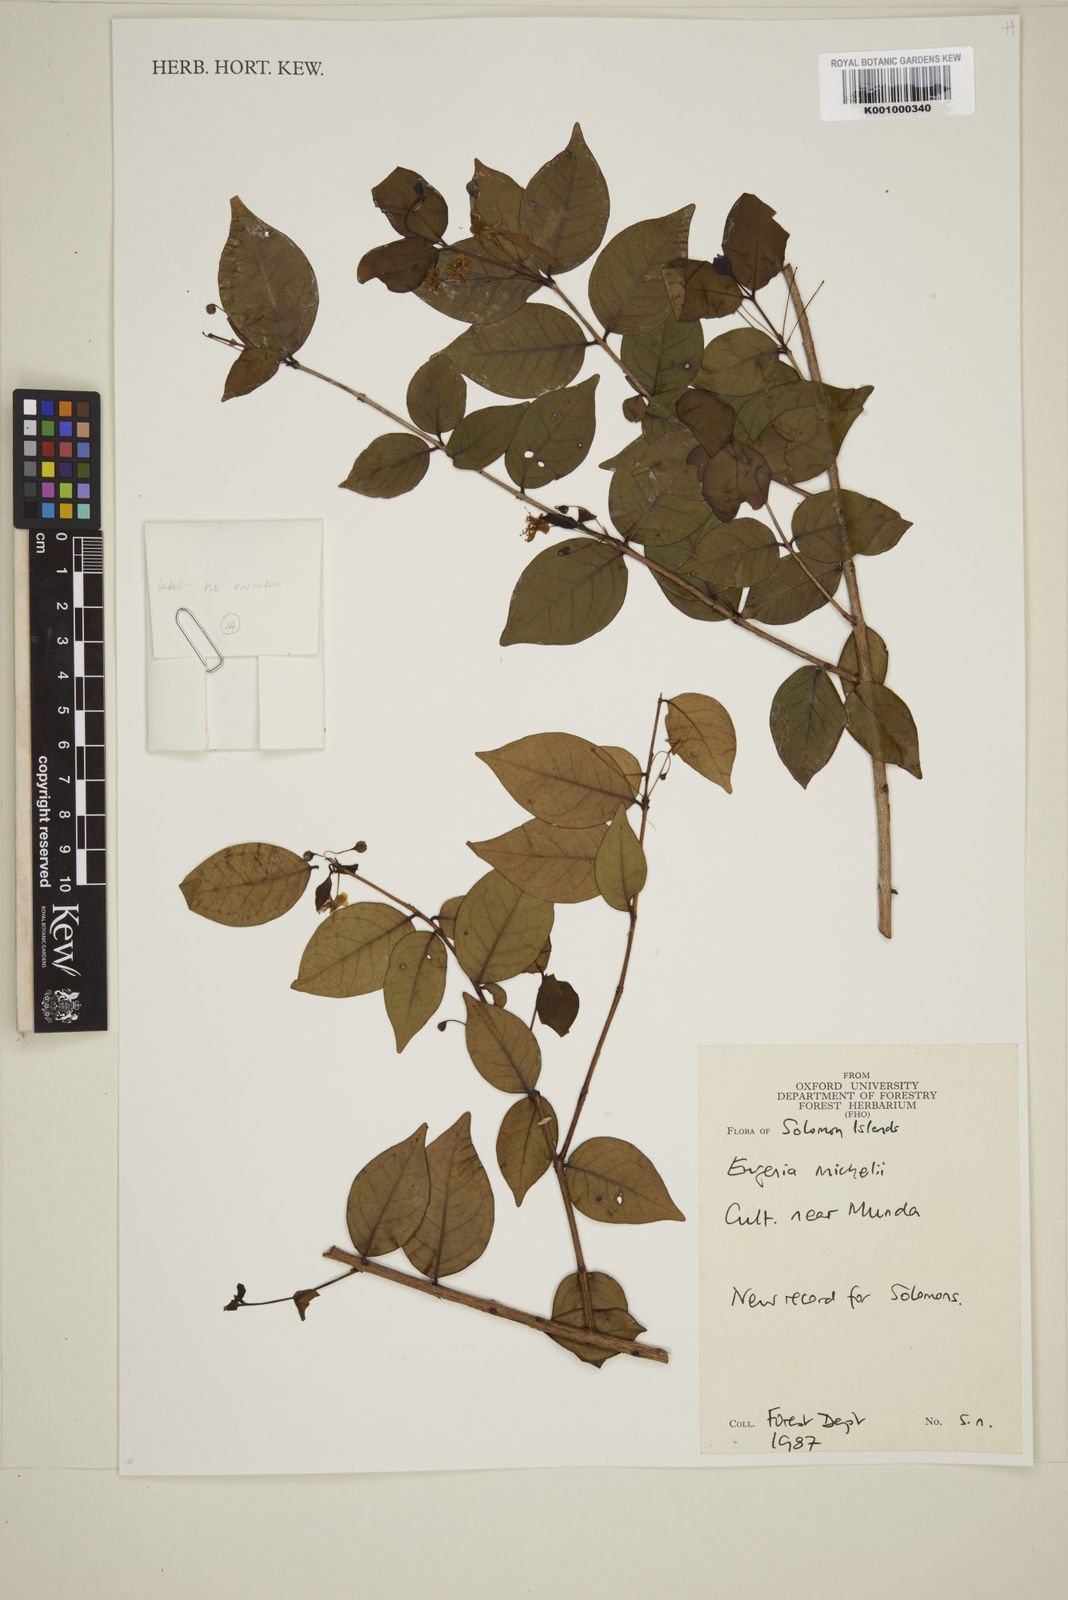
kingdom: Plantae
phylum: Tracheophyta
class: Magnoliopsida
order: Myrtales
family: Myrtaceae
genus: Eugenia
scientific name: Eugenia uniflora
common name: Surinam cherry
